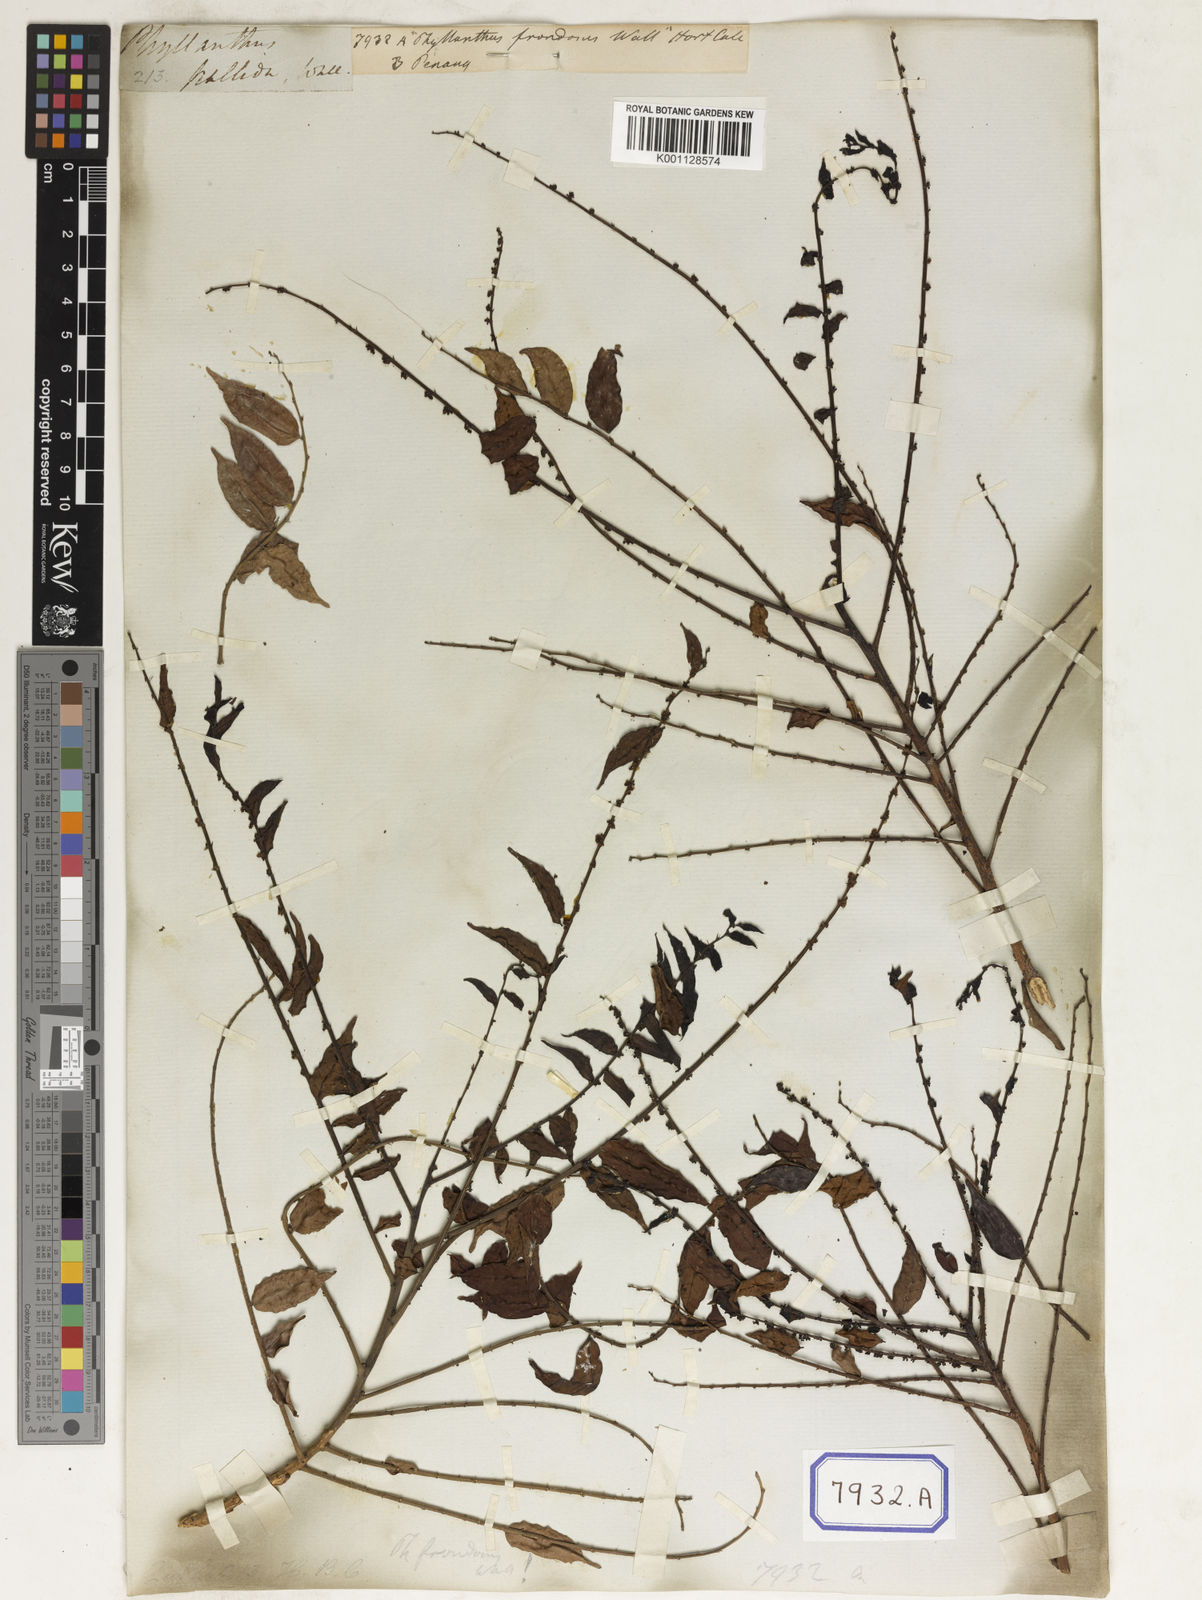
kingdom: Plantae
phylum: Tracheophyta
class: Magnoliopsida
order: Malpighiales
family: Euphorbiaceae
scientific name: Euphorbiaceae
